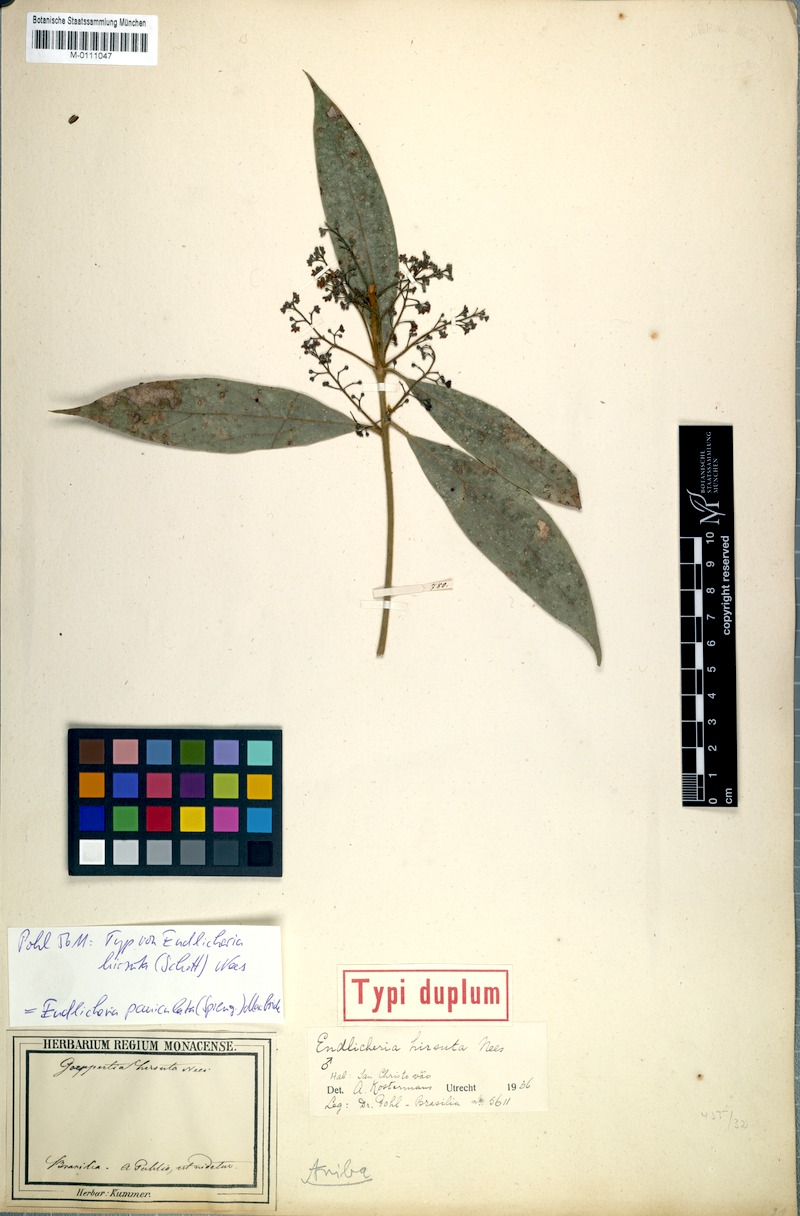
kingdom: Plantae
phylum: Tracheophyta
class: Magnoliopsida
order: Laurales
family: Lauraceae
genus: Endlicheria
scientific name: Endlicheria paniculata
